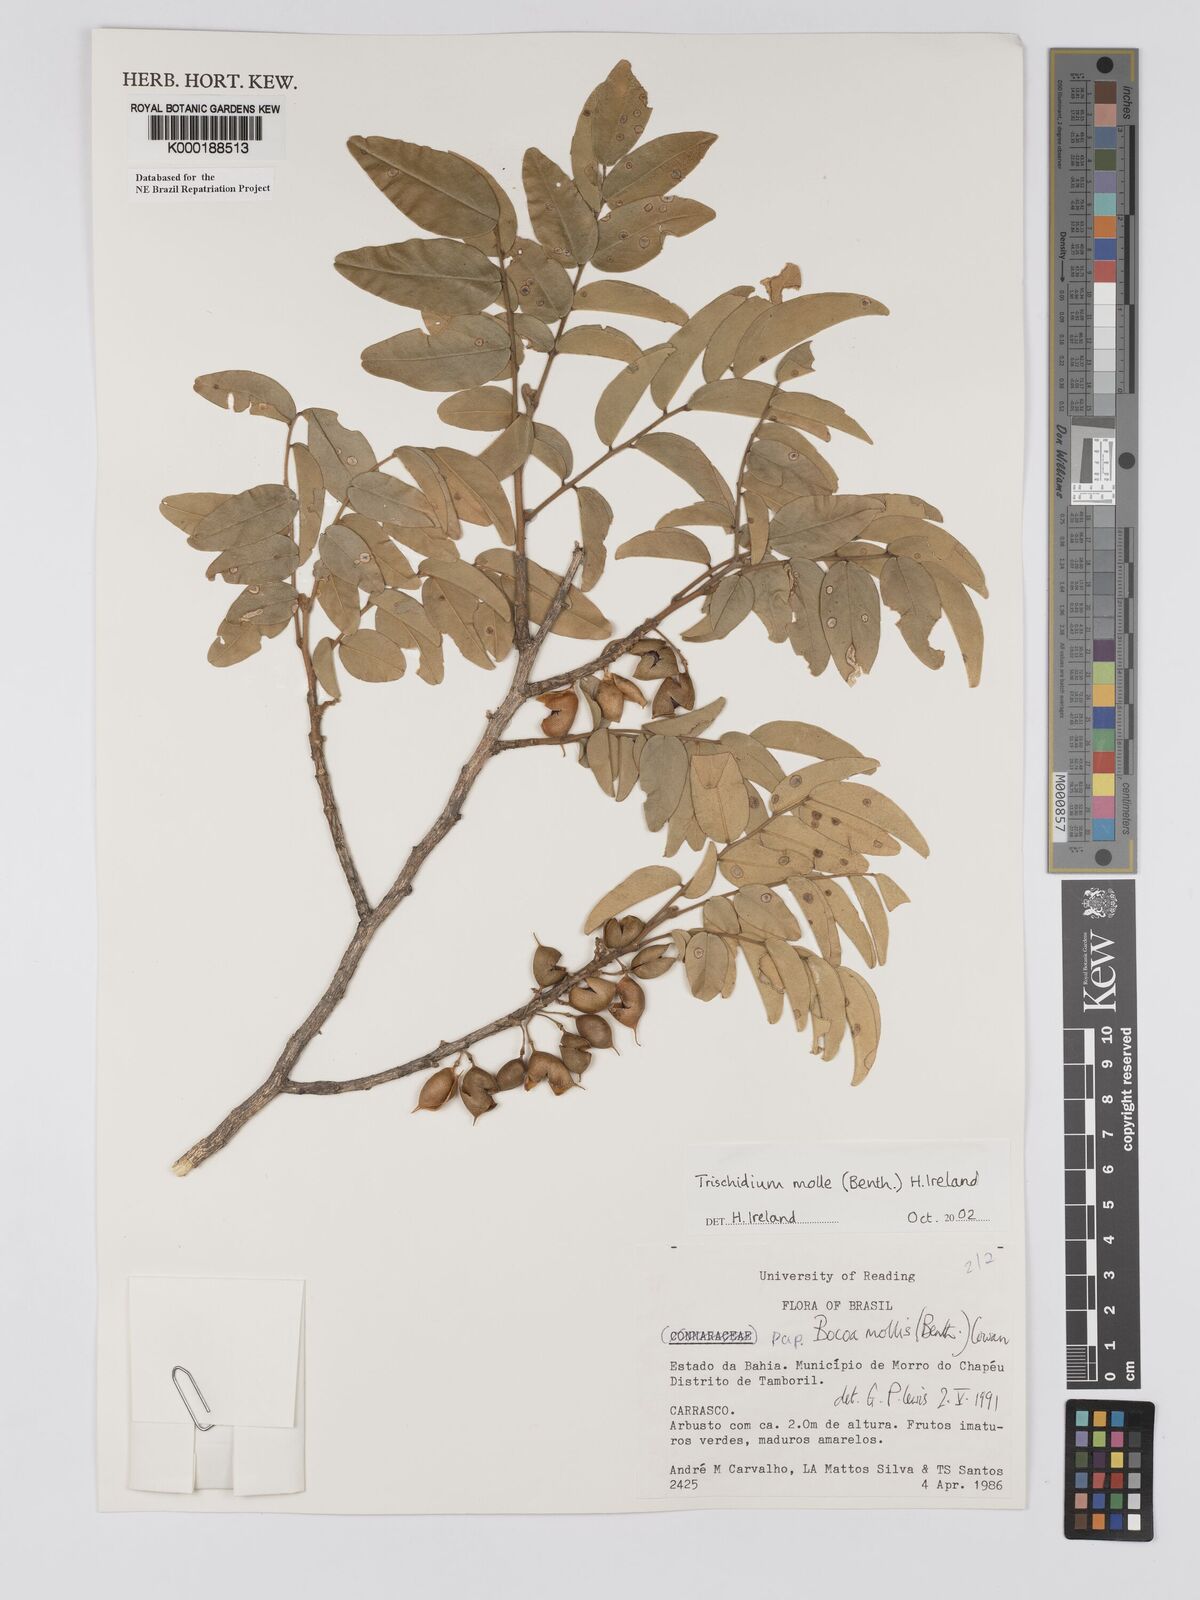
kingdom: Plantae
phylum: Tracheophyta
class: Magnoliopsida
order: Fabales
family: Fabaceae
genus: Trischidium
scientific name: Trischidium
